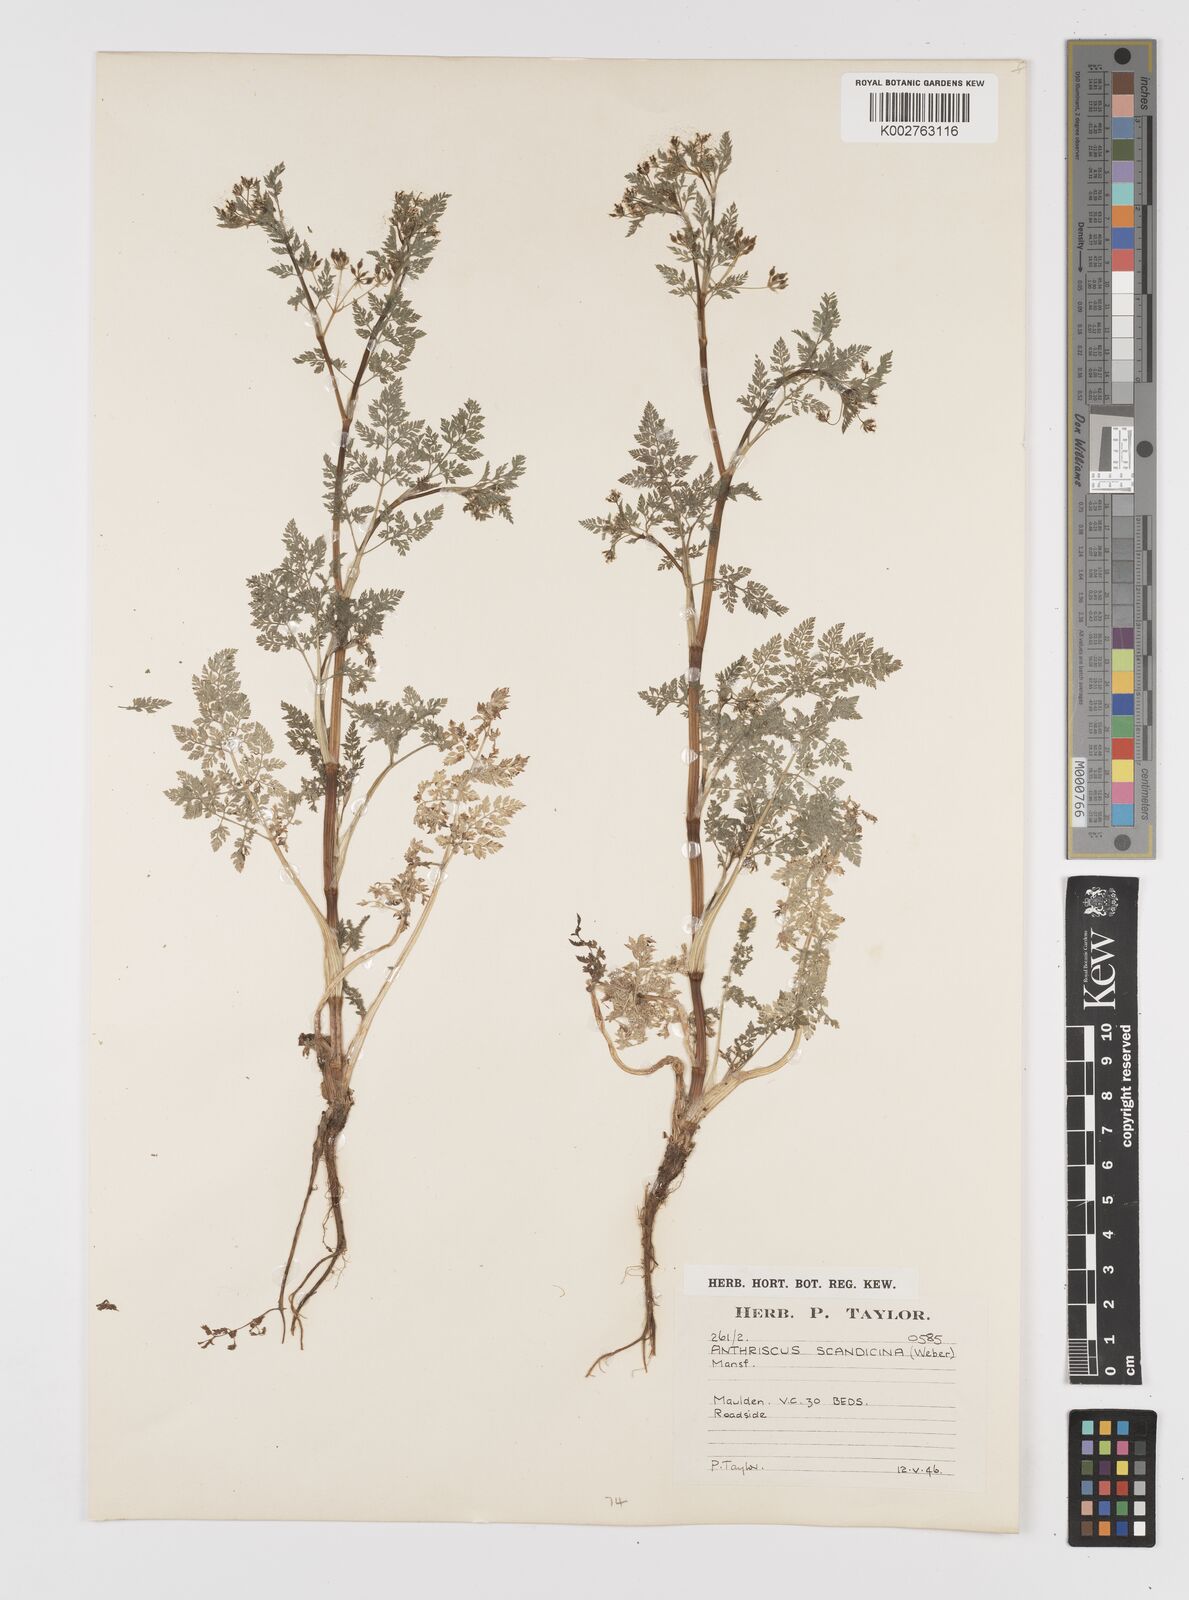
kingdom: Plantae
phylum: Tracheophyta
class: Magnoliopsida
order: Apiales
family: Apiaceae
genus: Anthriscus
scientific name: Anthriscus caucalis
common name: Bur chervil
